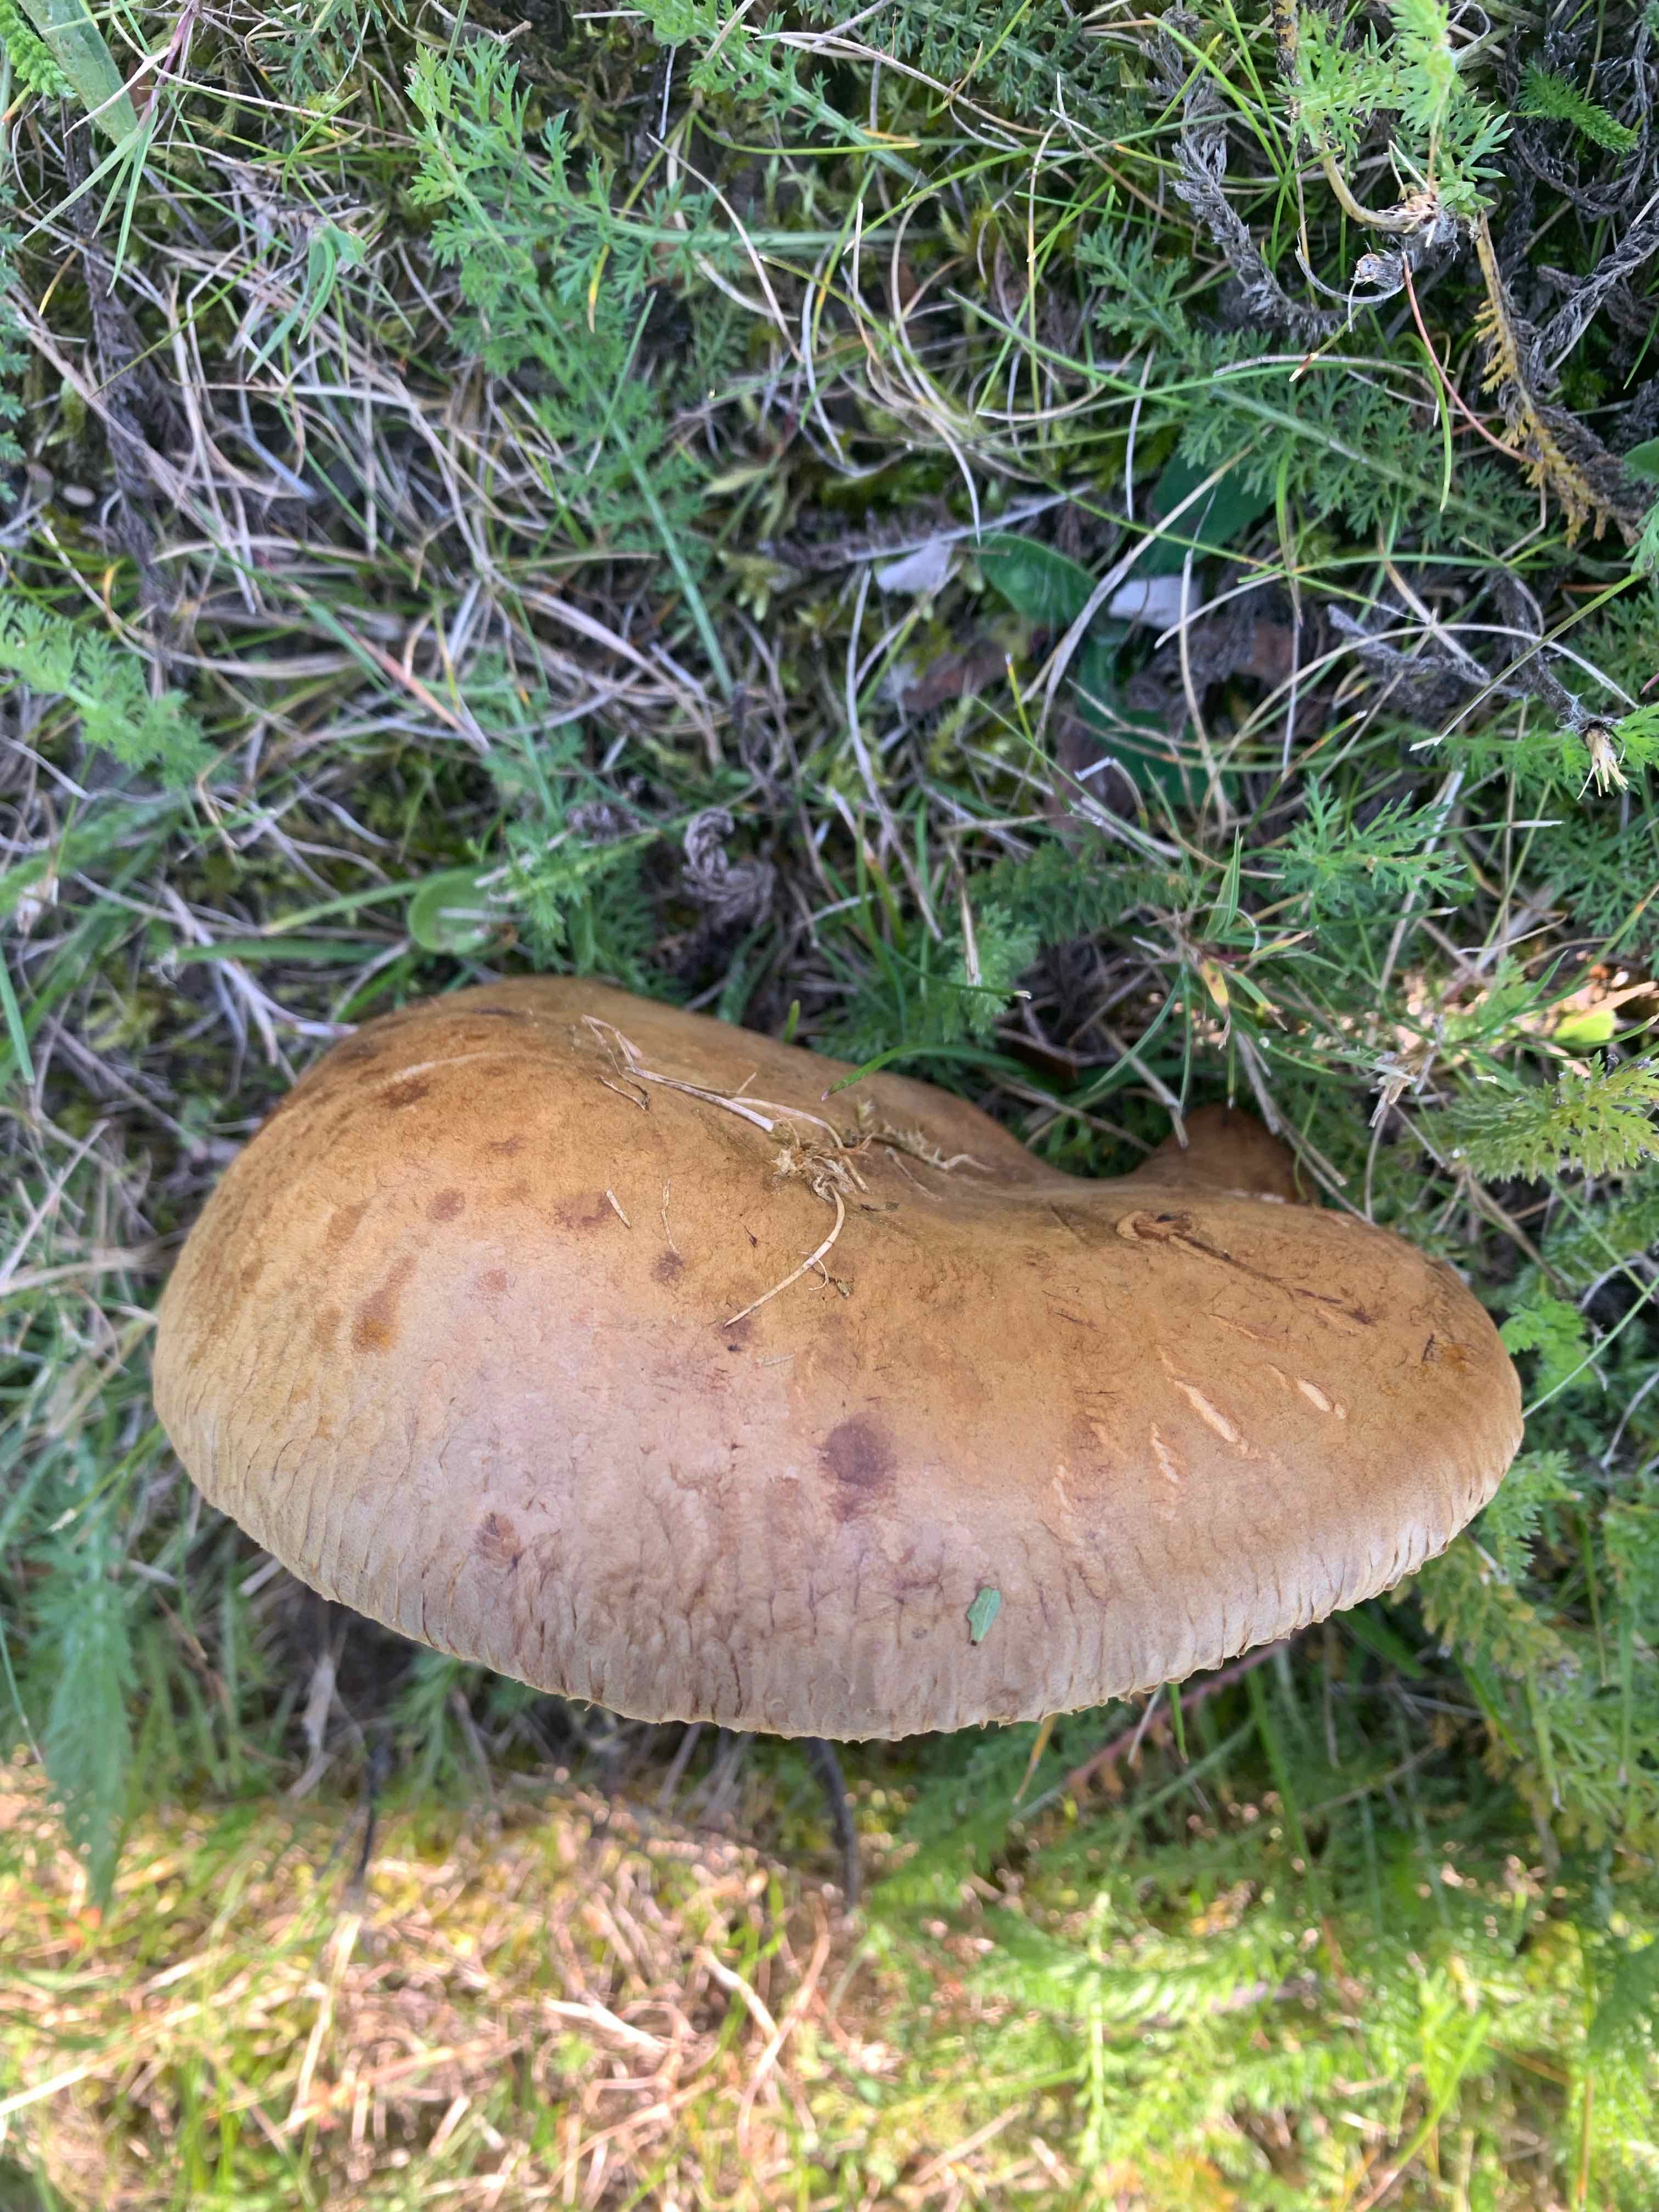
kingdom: Fungi
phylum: Basidiomycota
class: Agaricomycetes
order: Boletales
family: Paxillaceae
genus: Paxillus
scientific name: Paxillus
